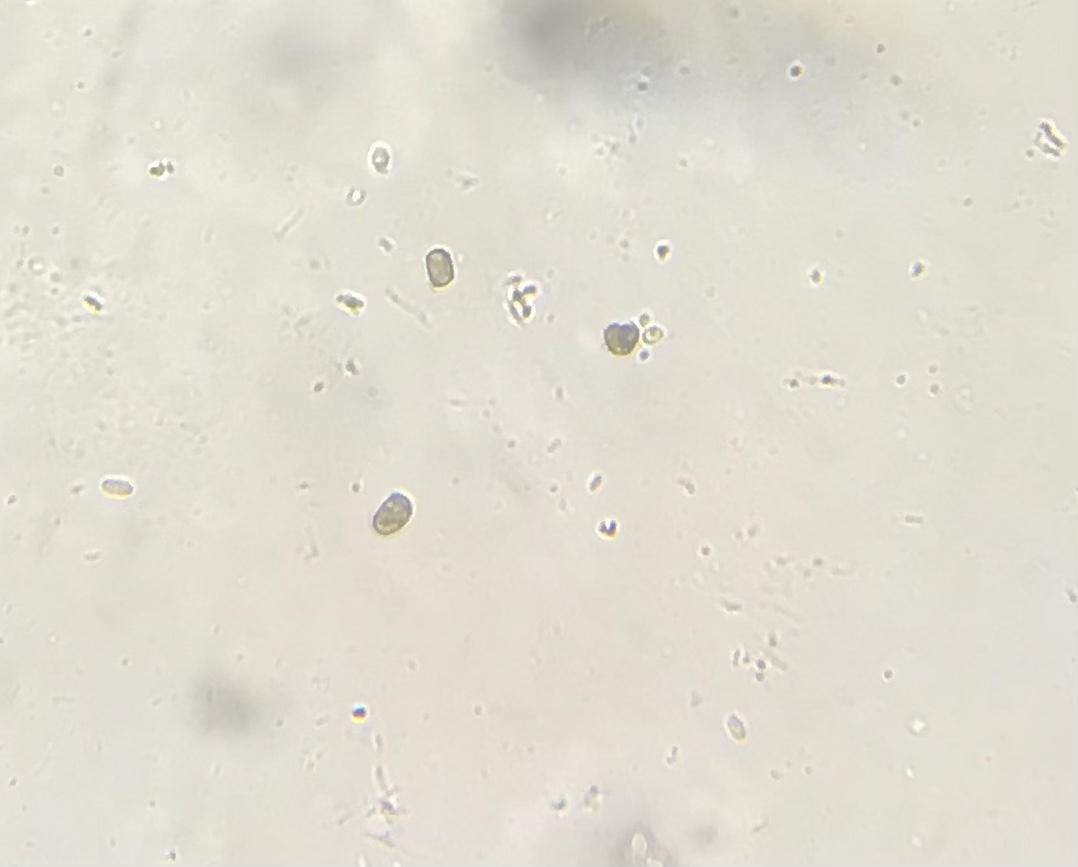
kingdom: Fungi
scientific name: Fungi
